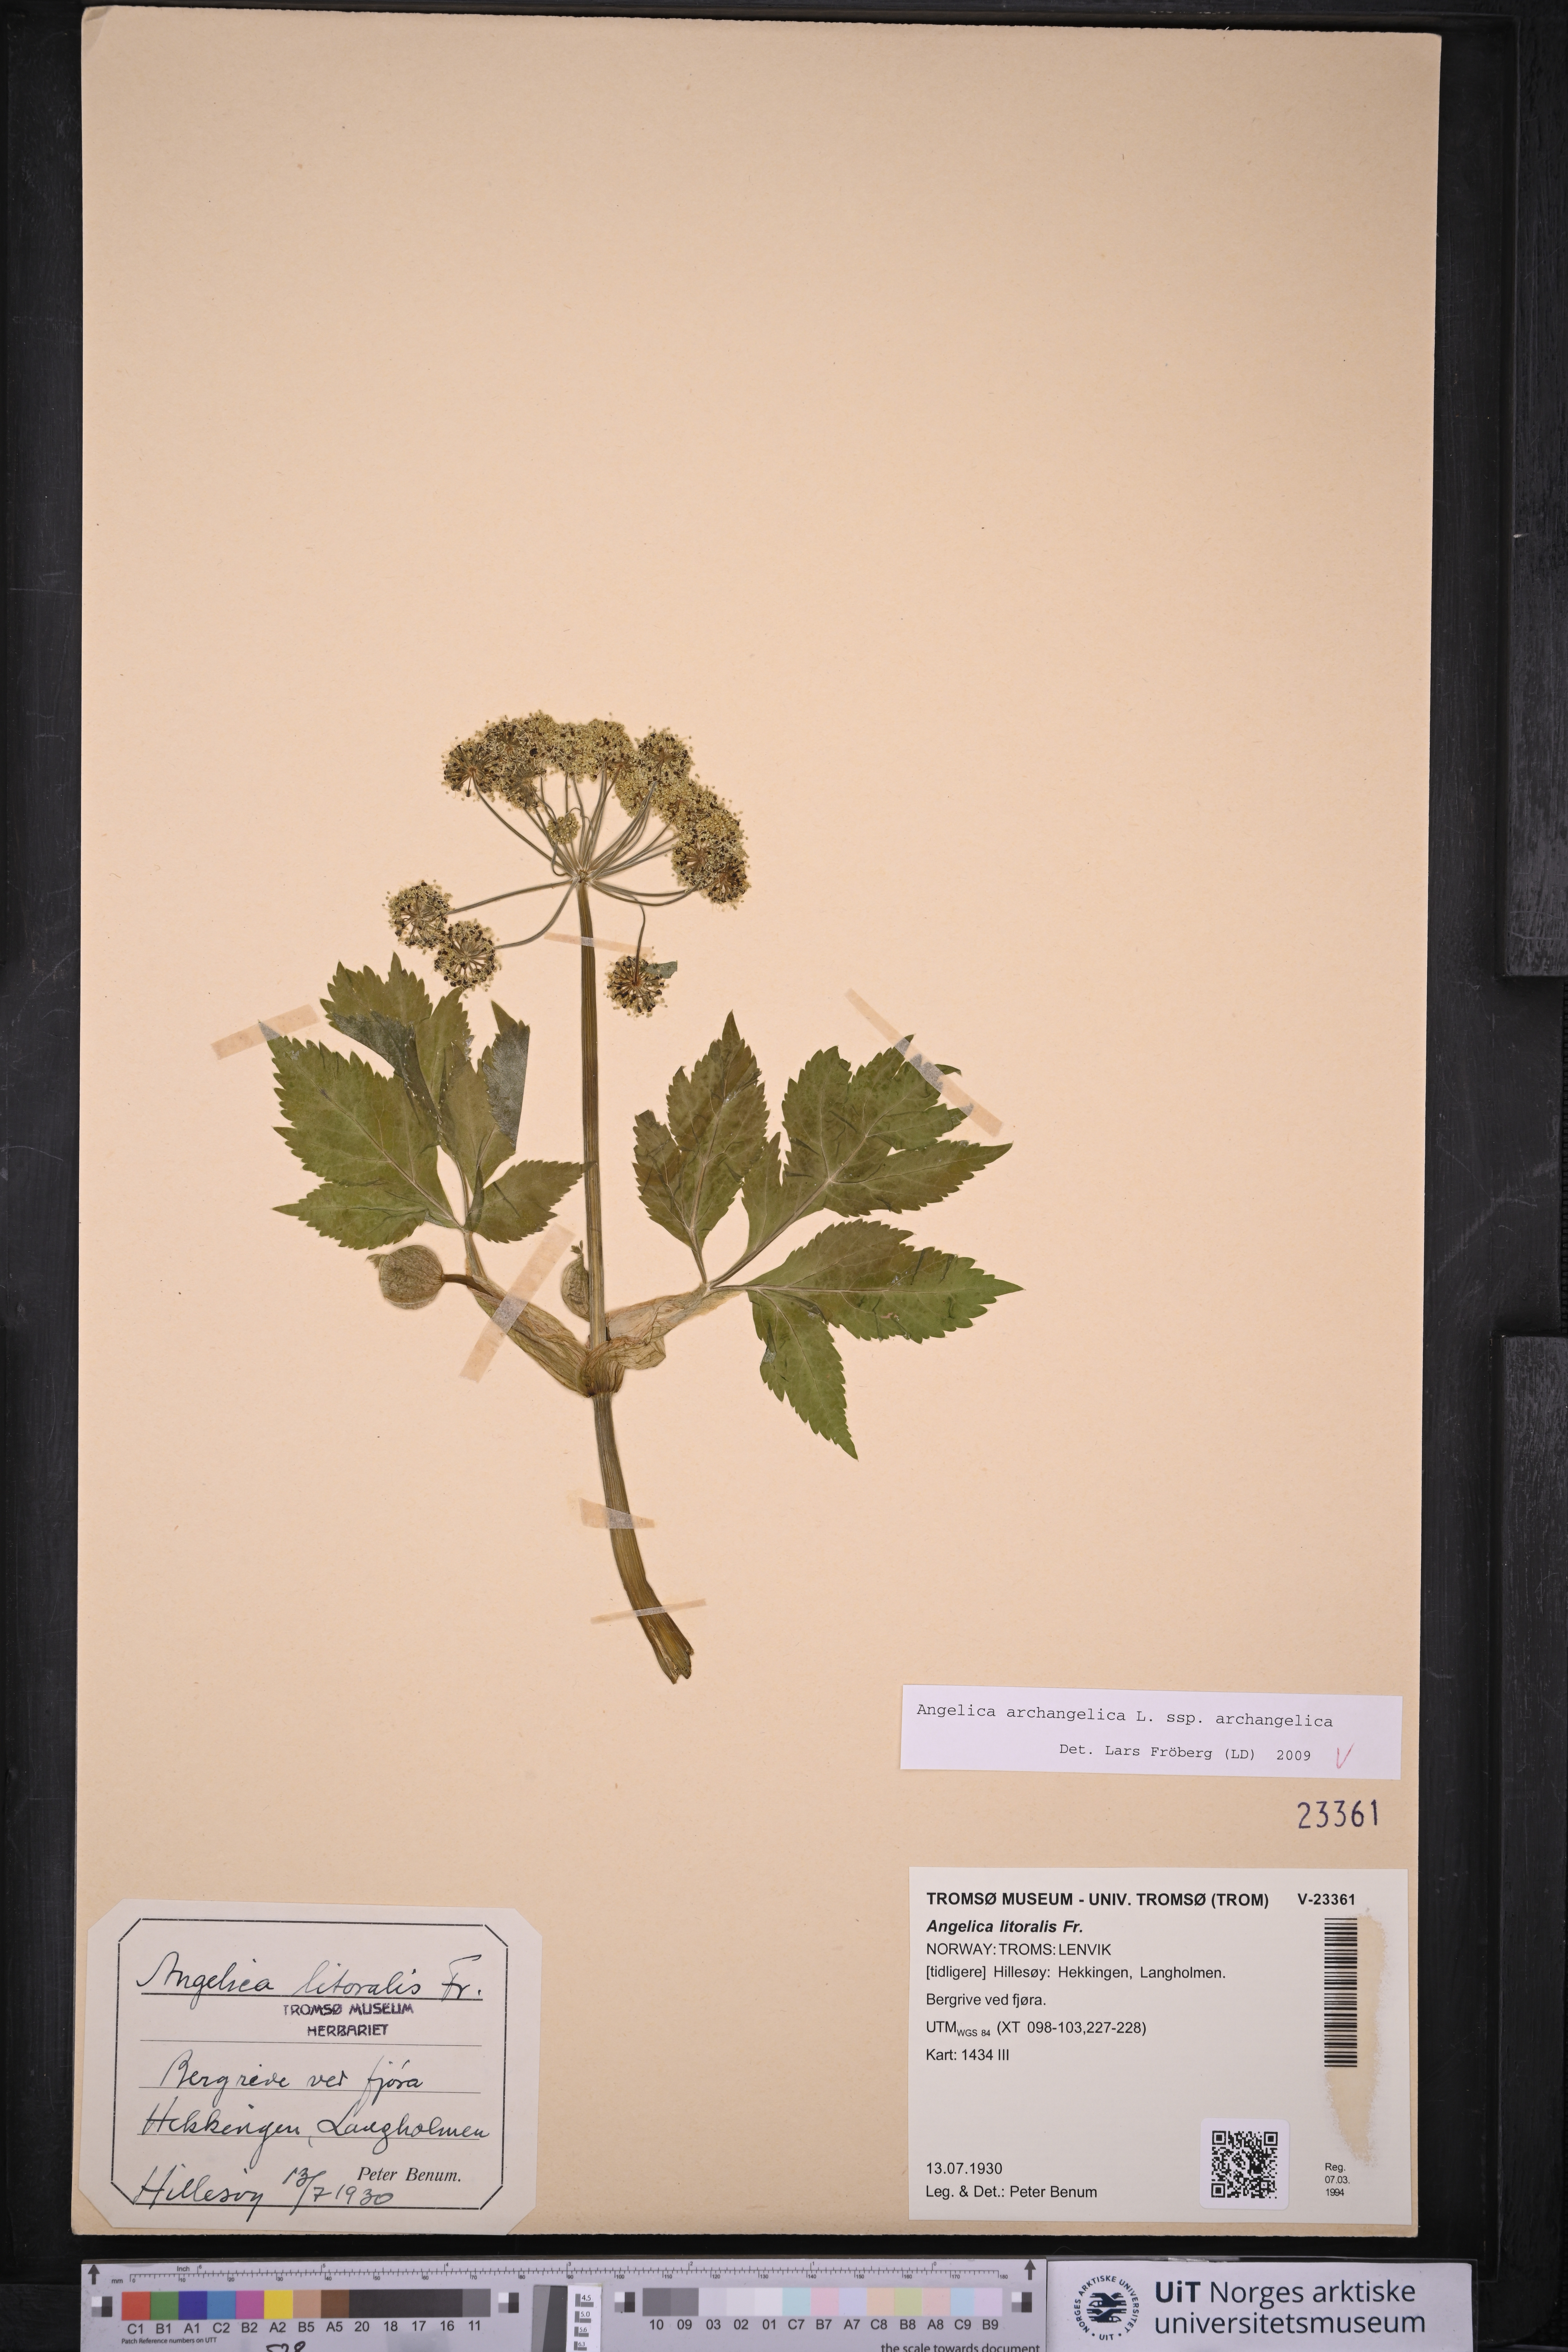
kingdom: Plantae
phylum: Tracheophyta
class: Magnoliopsida
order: Apiales
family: Apiaceae
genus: Angelica
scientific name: Angelica archangelica
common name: Garden angelica
